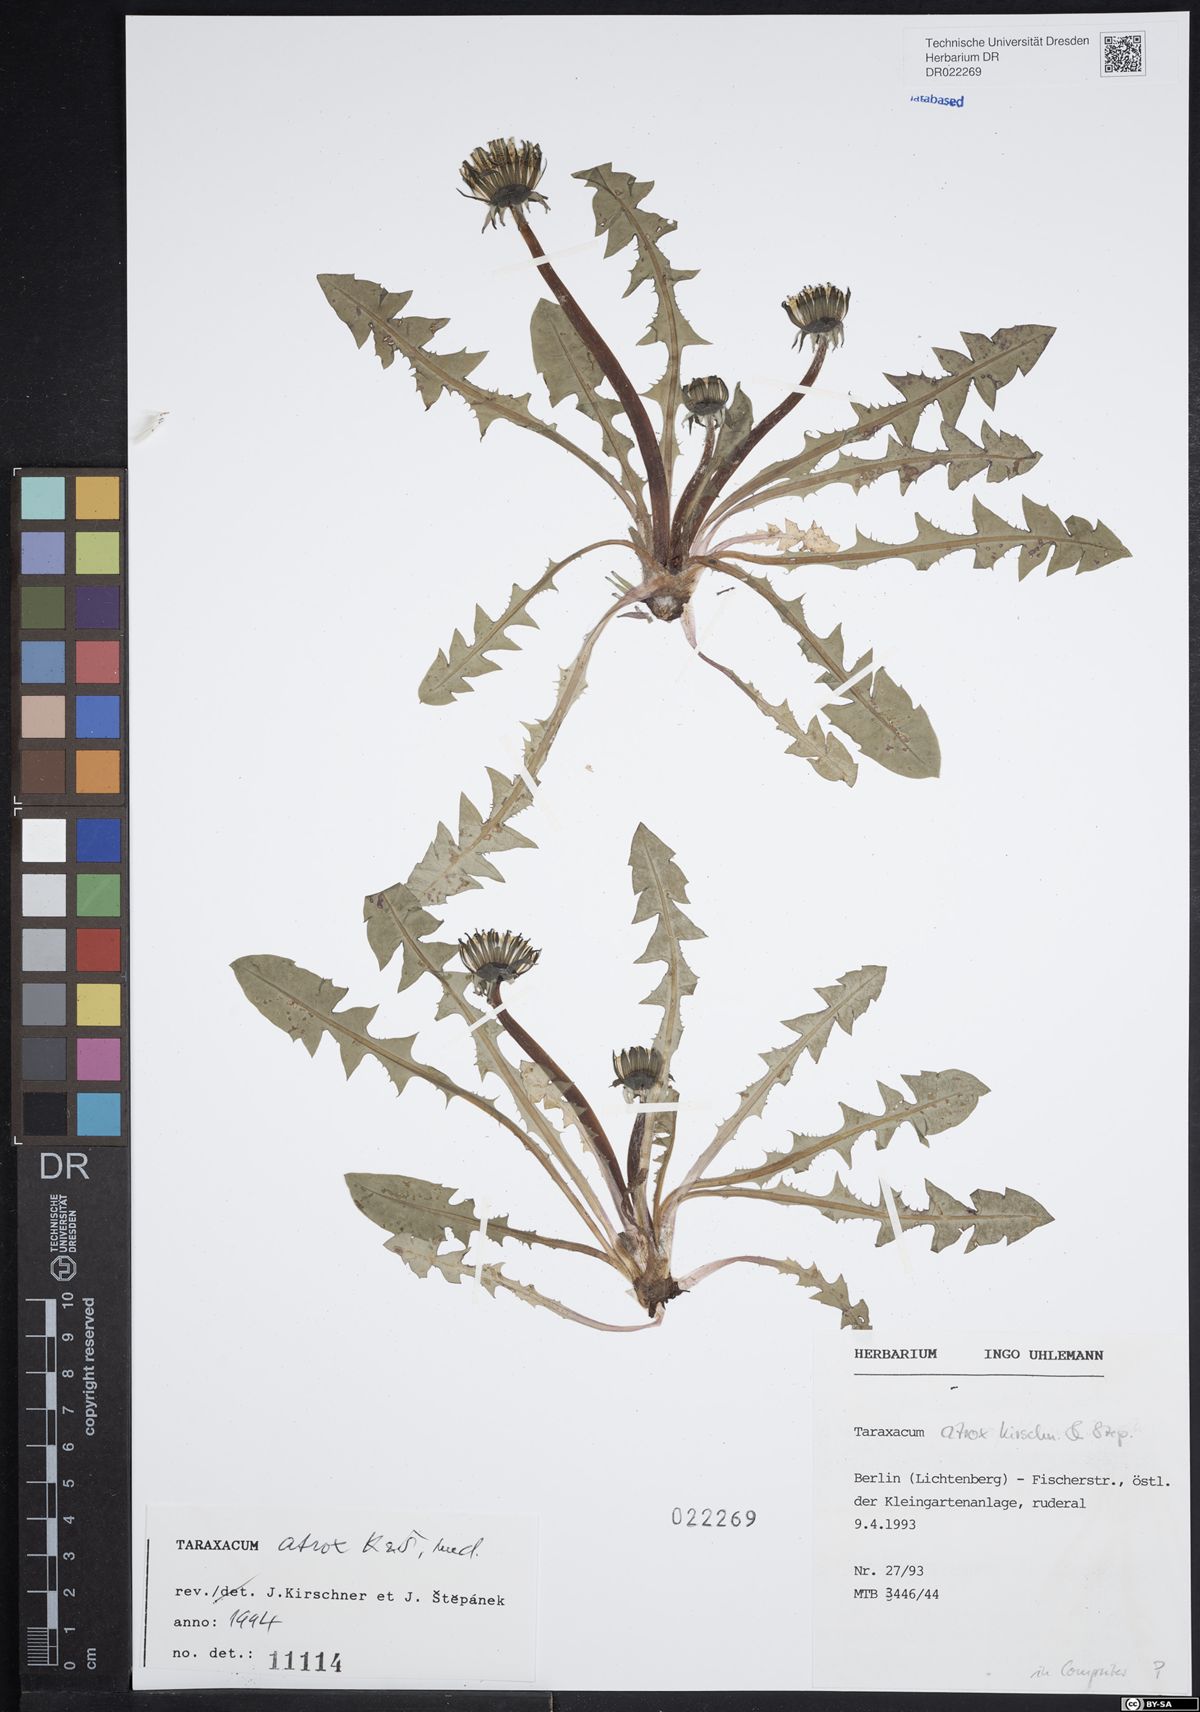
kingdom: Plantae
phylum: Tracheophyta
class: Magnoliopsida
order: Asterales
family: Asteraceae
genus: Taraxacum
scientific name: Taraxacum atrox
